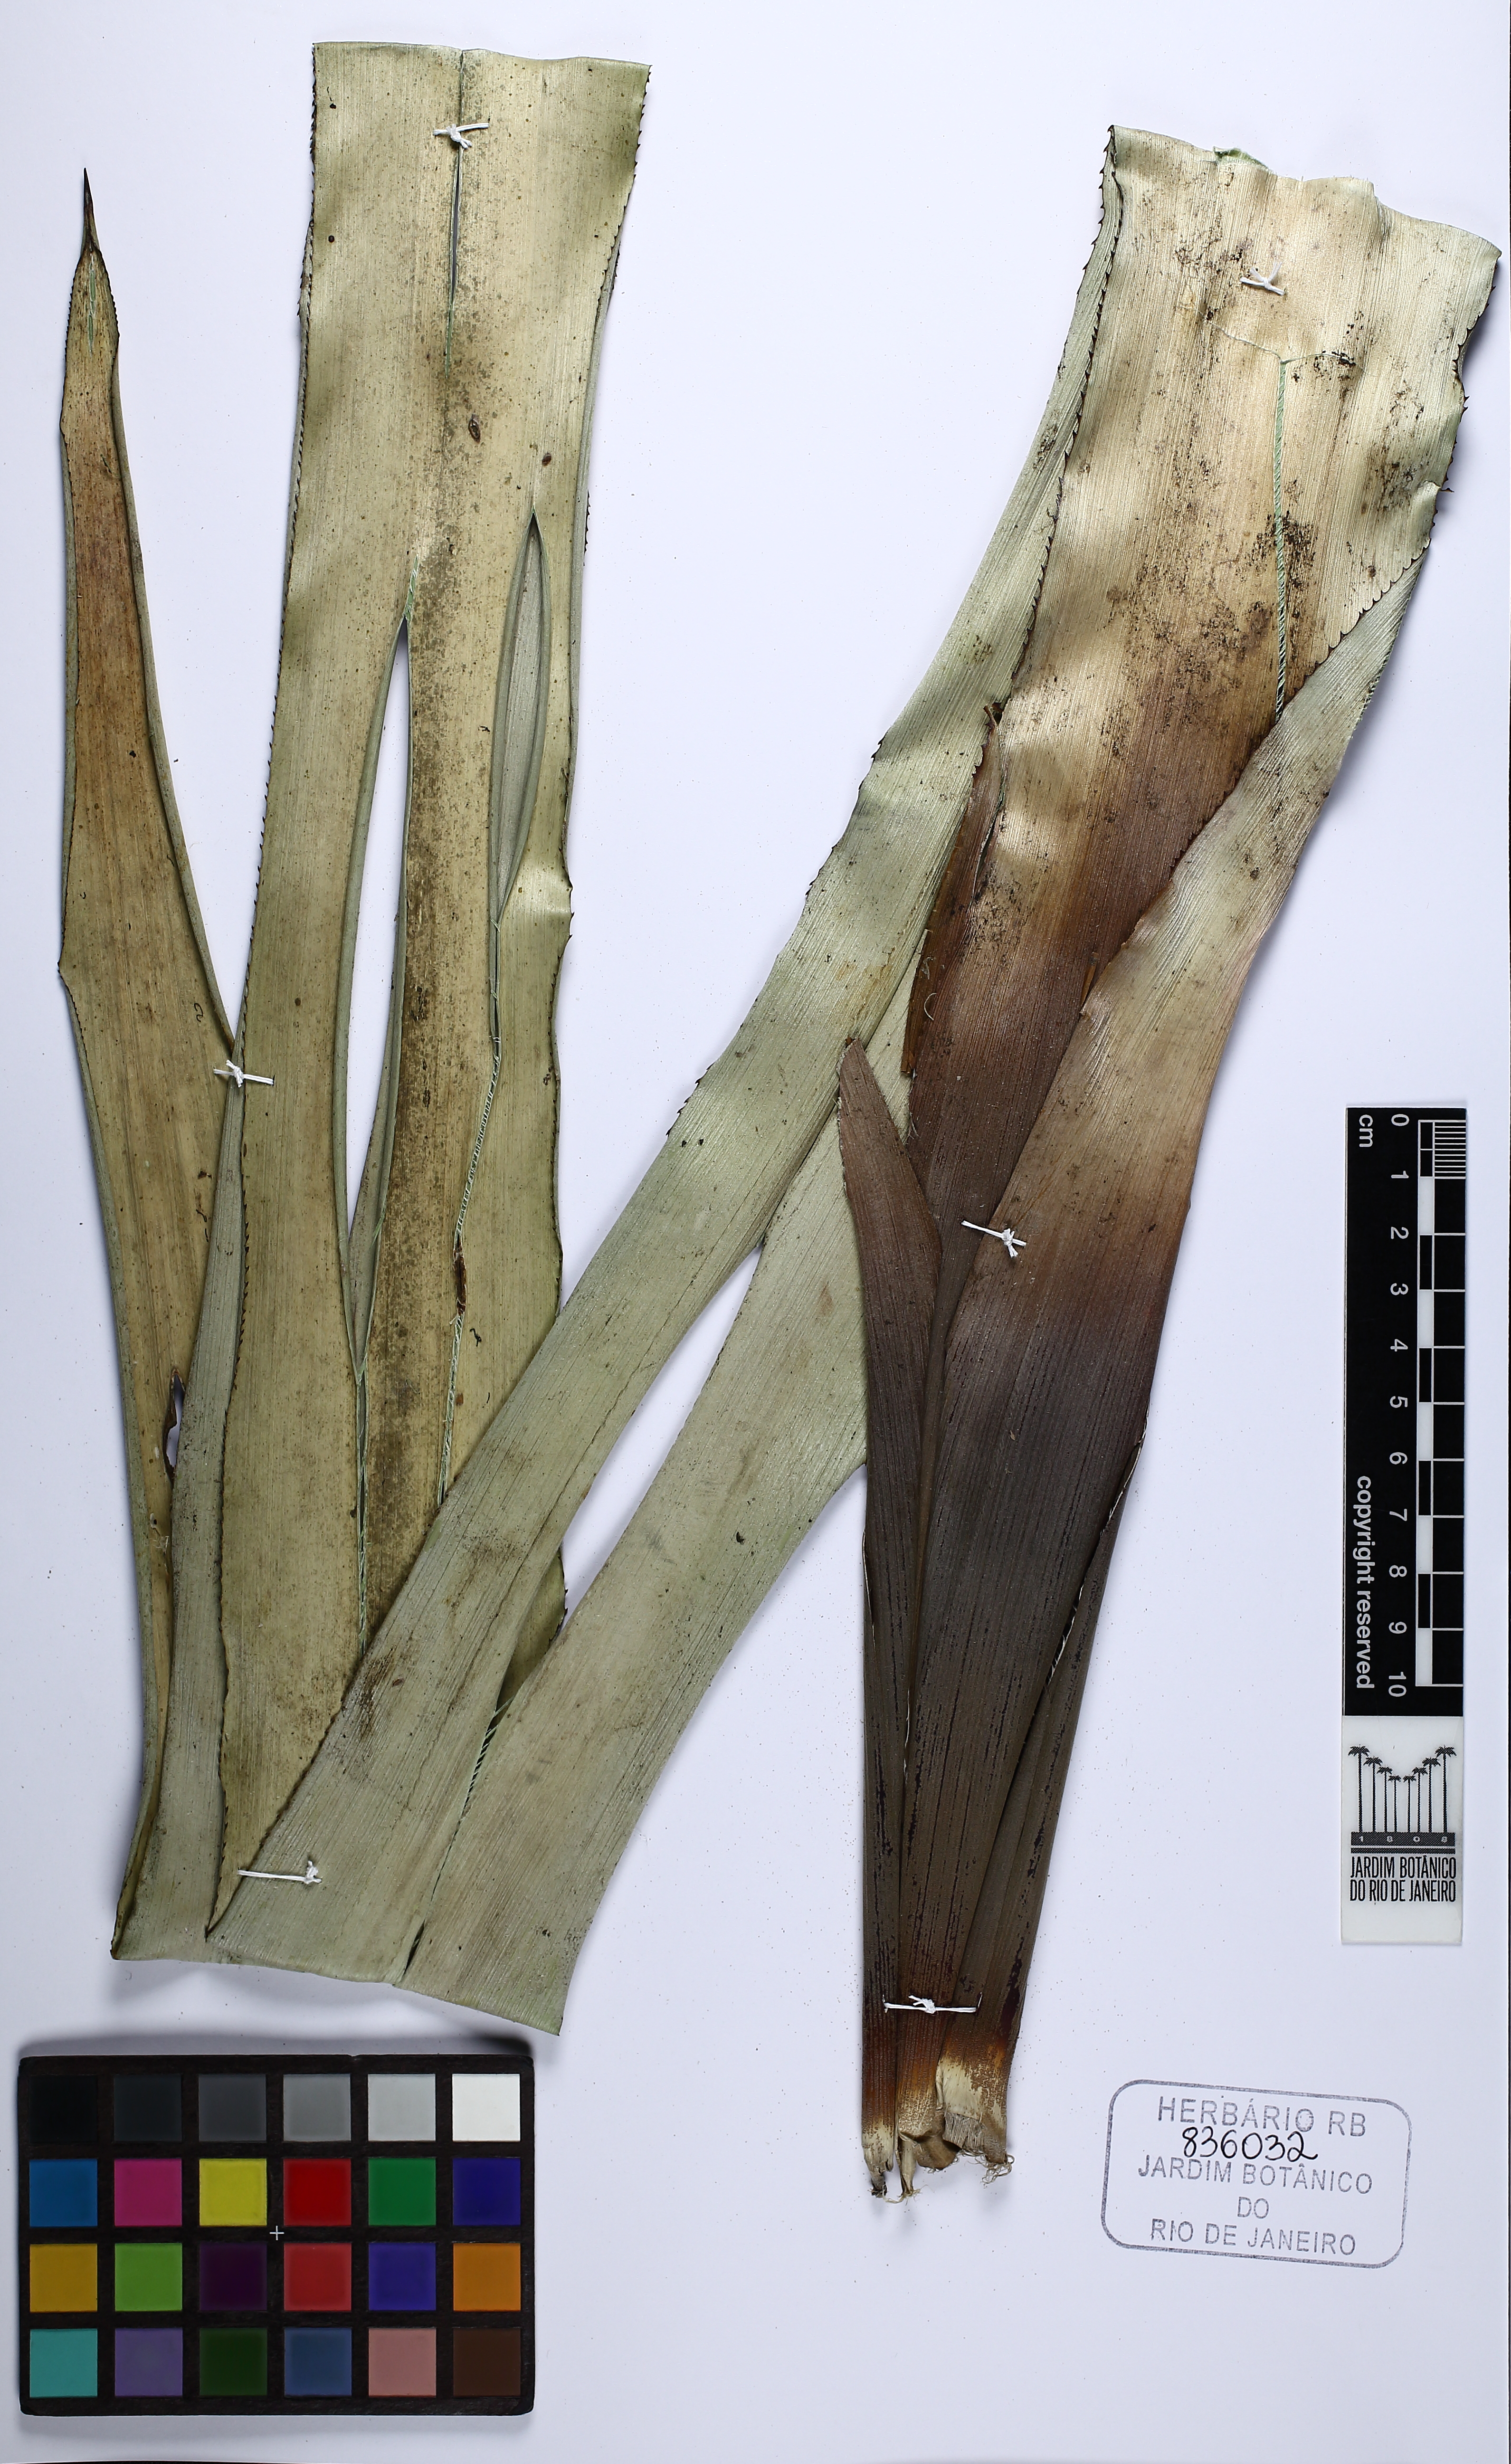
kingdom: Plantae
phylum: Tracheophyta
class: Liliopsida
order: Poales
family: Bromeliaceae
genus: Aechmea
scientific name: Aechmea
